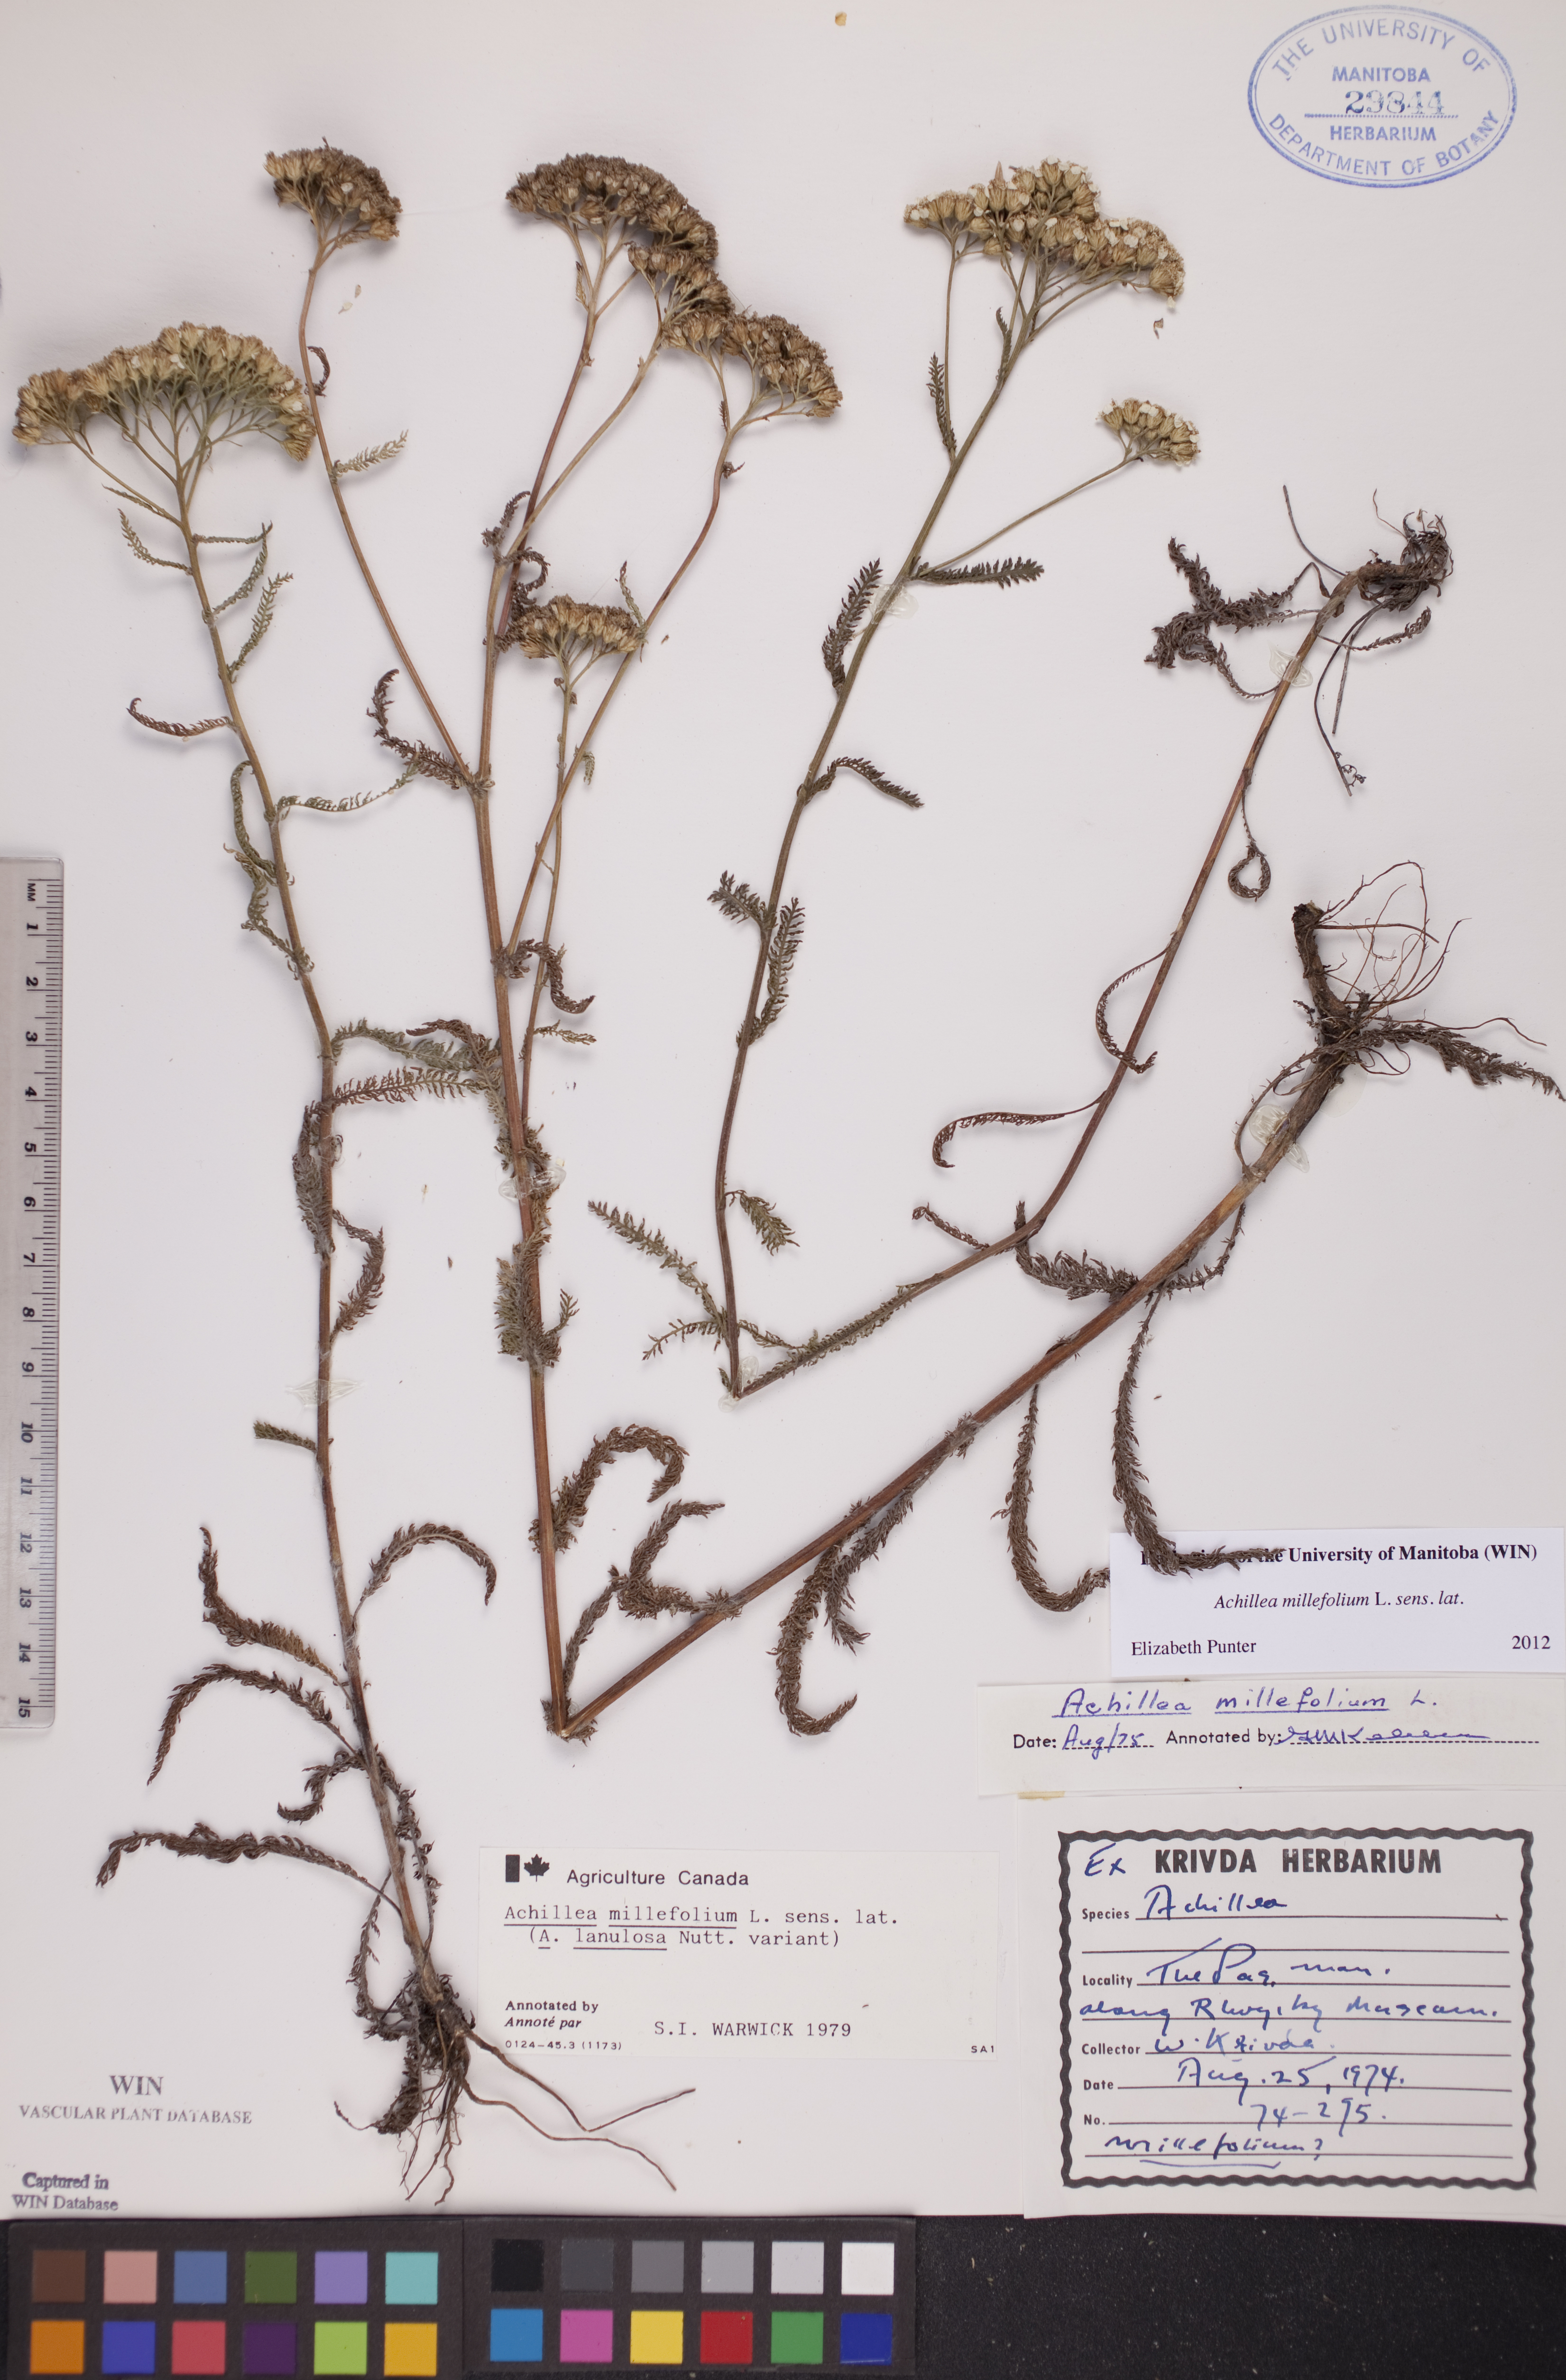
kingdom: Plantae
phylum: Tracheophyta
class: Magnoliopsida
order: Asterales
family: Asteraceae
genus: Achillea
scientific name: Achillea millefolium
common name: Yarrow
